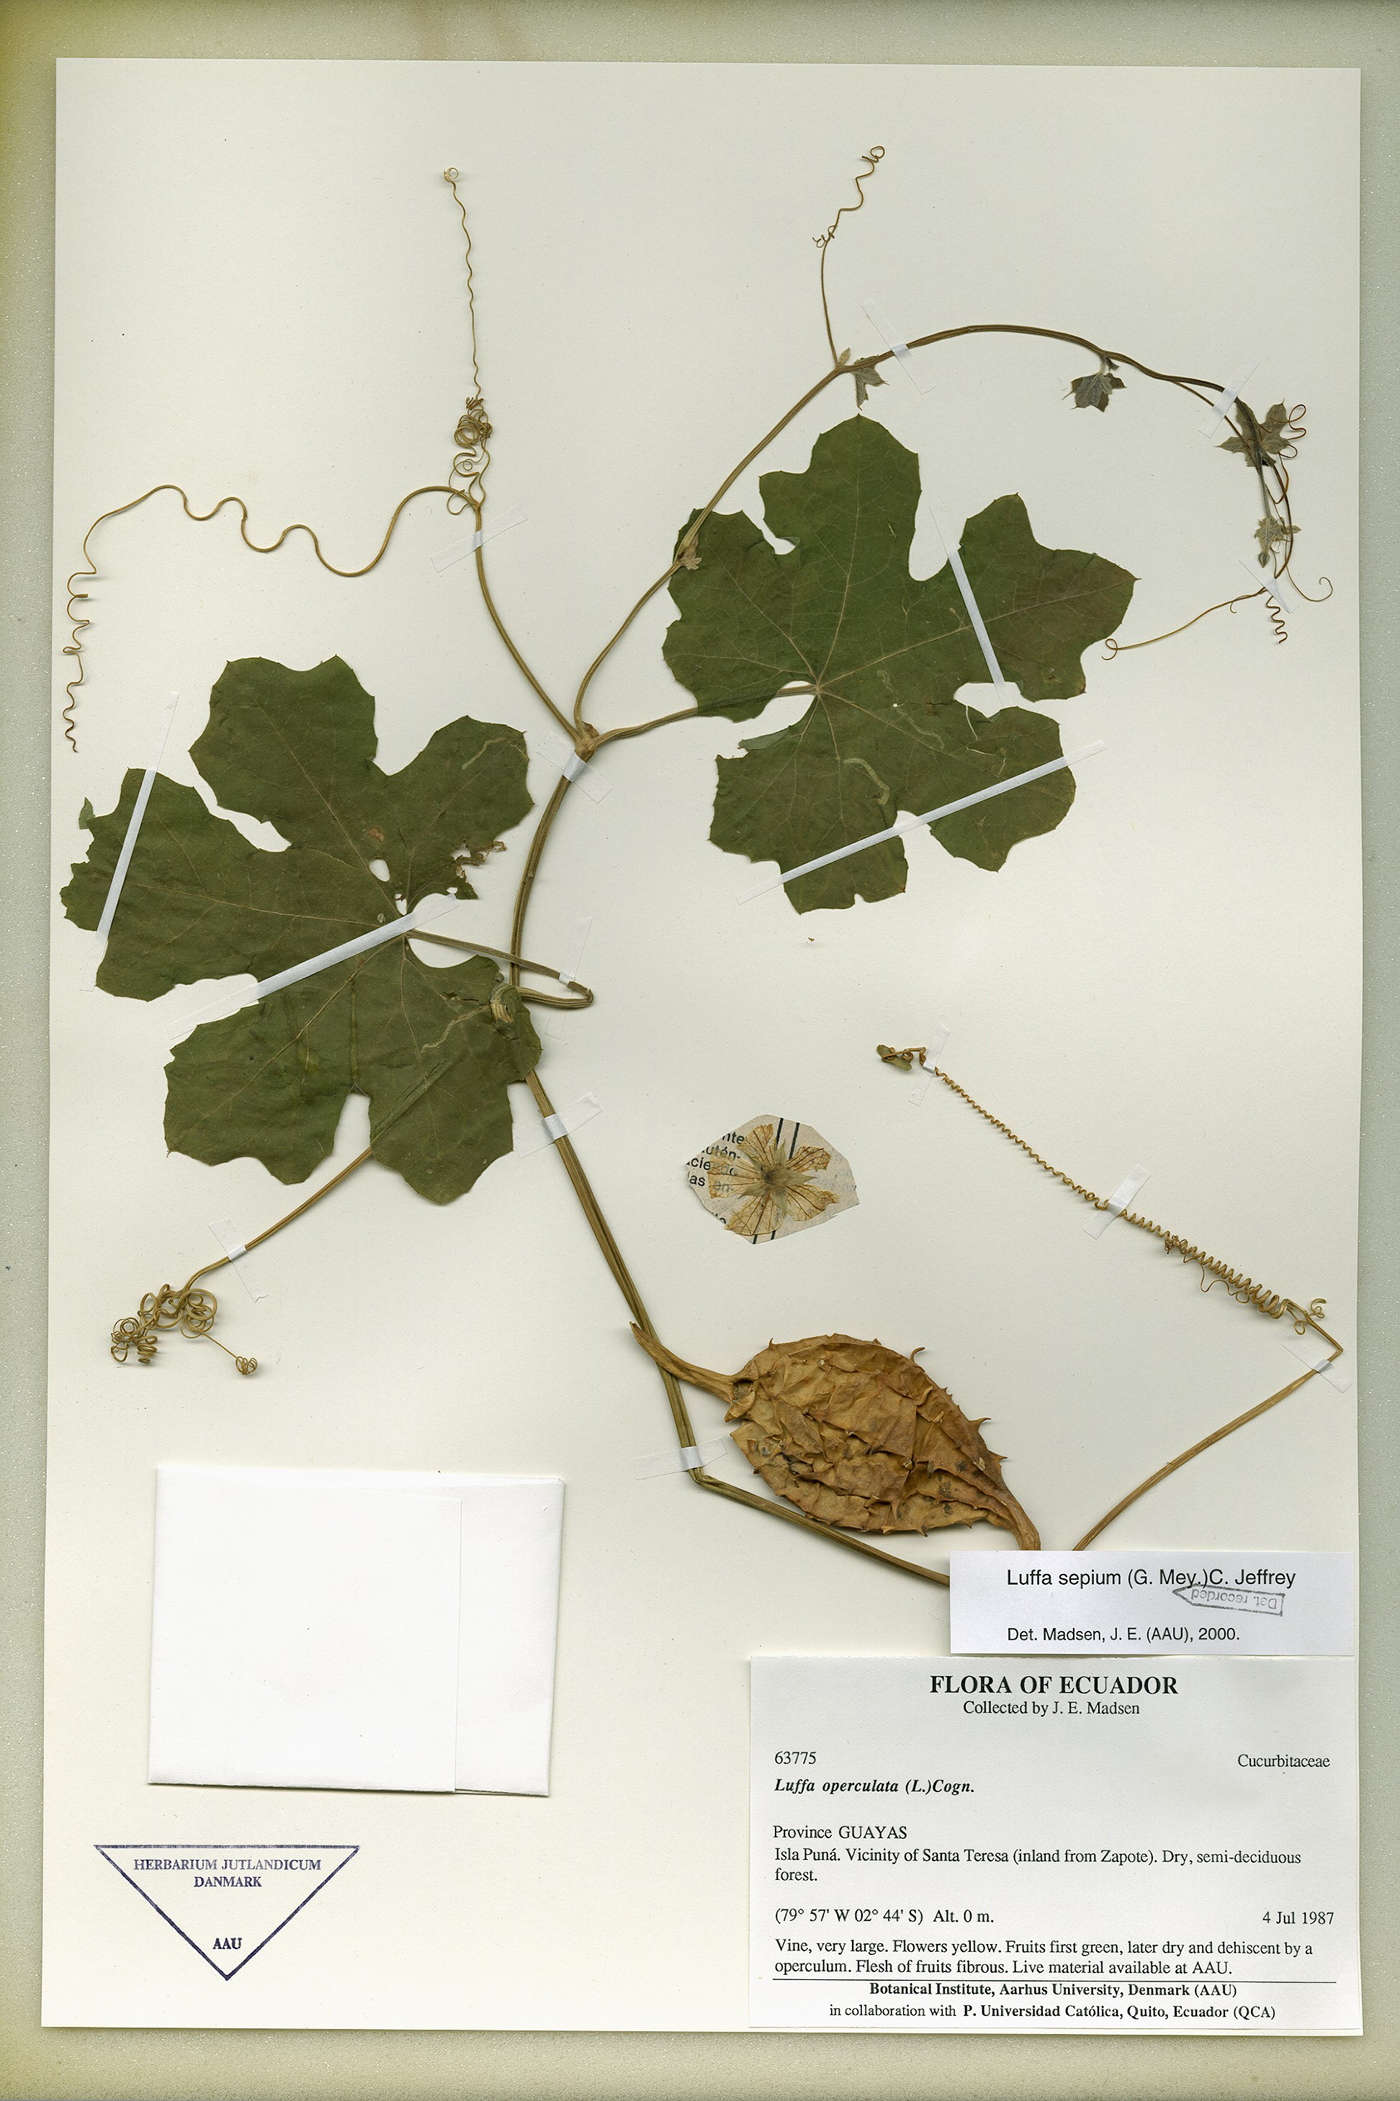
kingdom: Plantae
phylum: Tracheophyta
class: Magnoliopsida
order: Cucurbitales
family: Cucurbitaceae
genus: Luffa
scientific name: Luffa astorii
